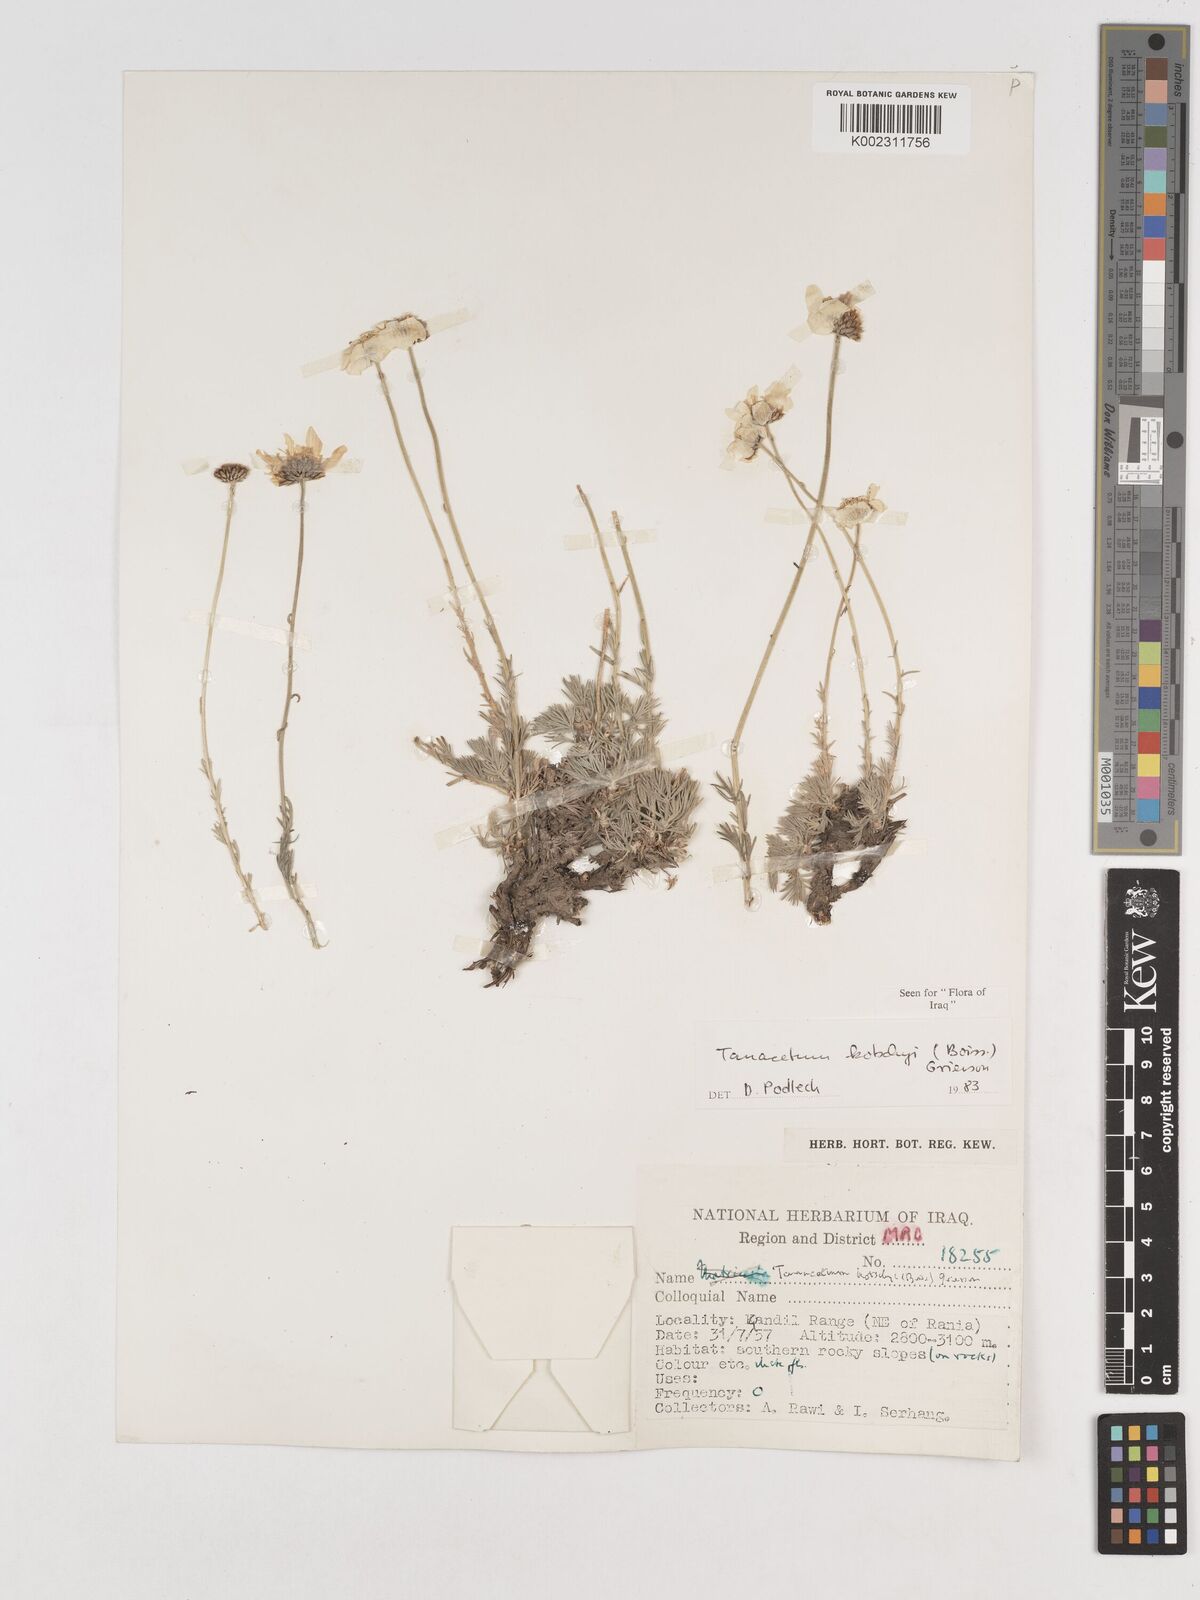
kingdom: Plantae
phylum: Tracheophyta
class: Magnoliopsida
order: Asterales
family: Asteraceae
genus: Tanacetum
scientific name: Tanacetum polycephalum
